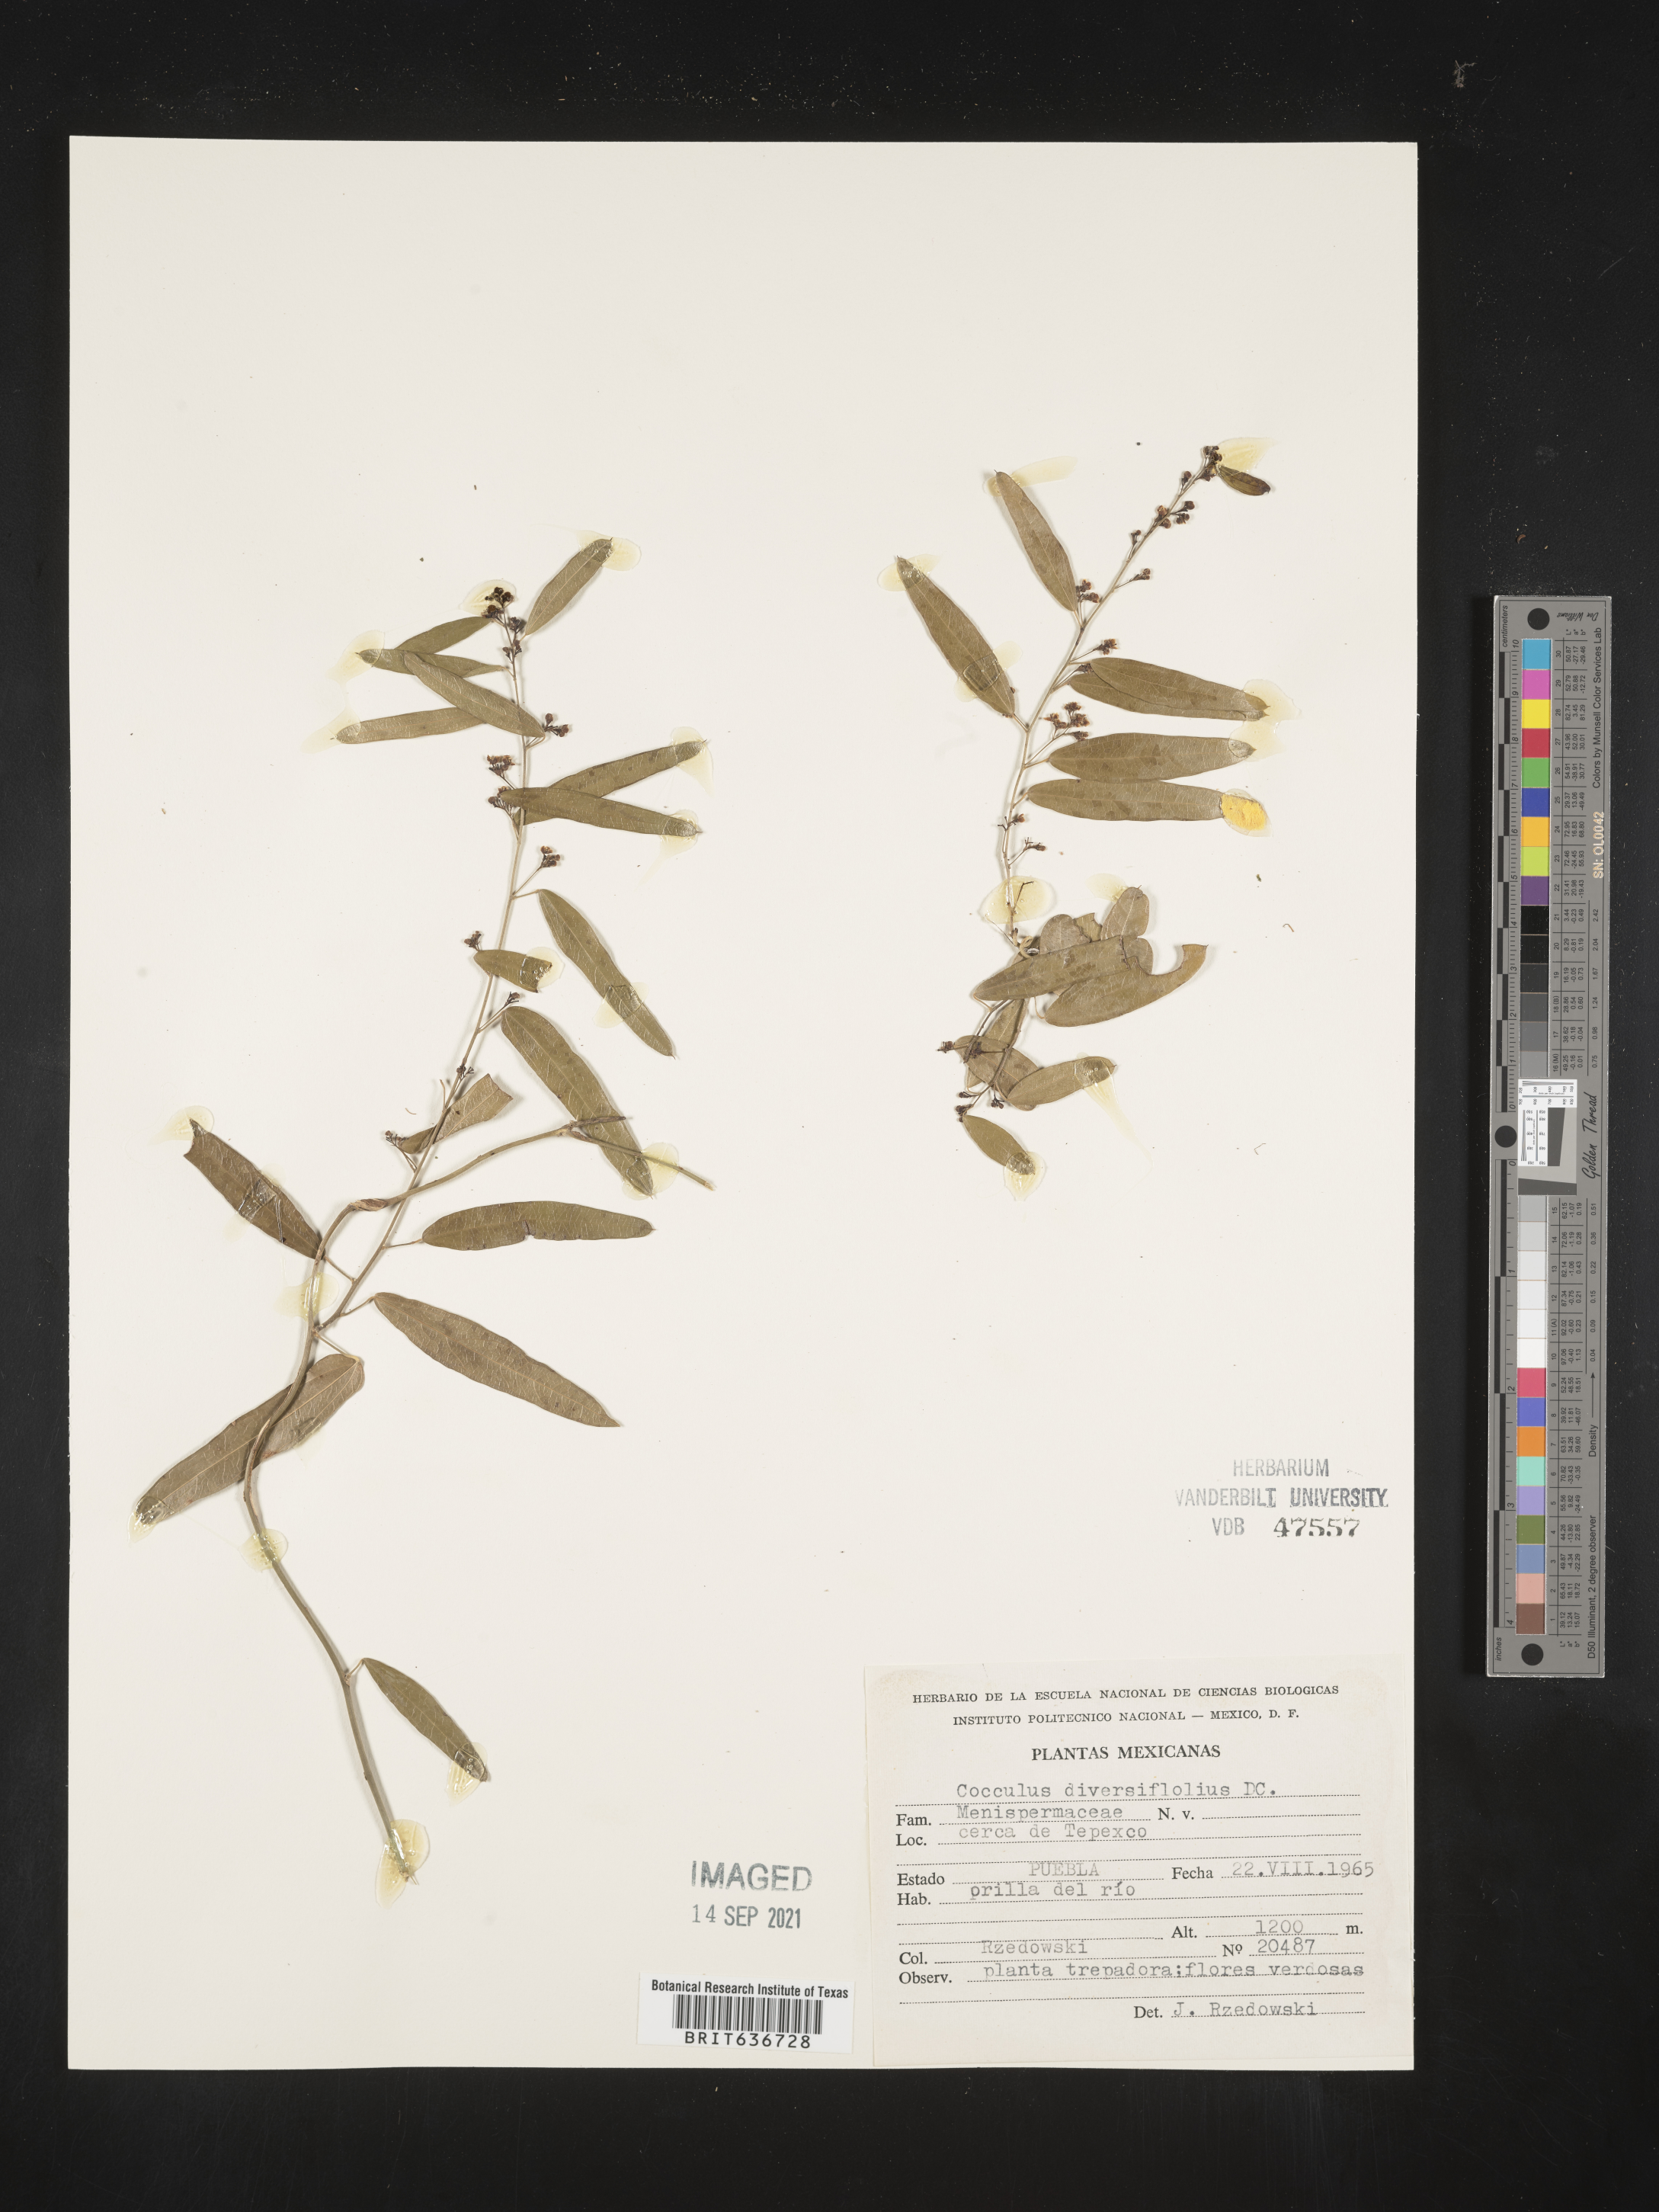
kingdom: Plantae
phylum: Tracheophyta
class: Magnoliopsida
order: Ranunculales
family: Menispermaceae
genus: Cocculus
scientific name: Cocculus diversifolius
